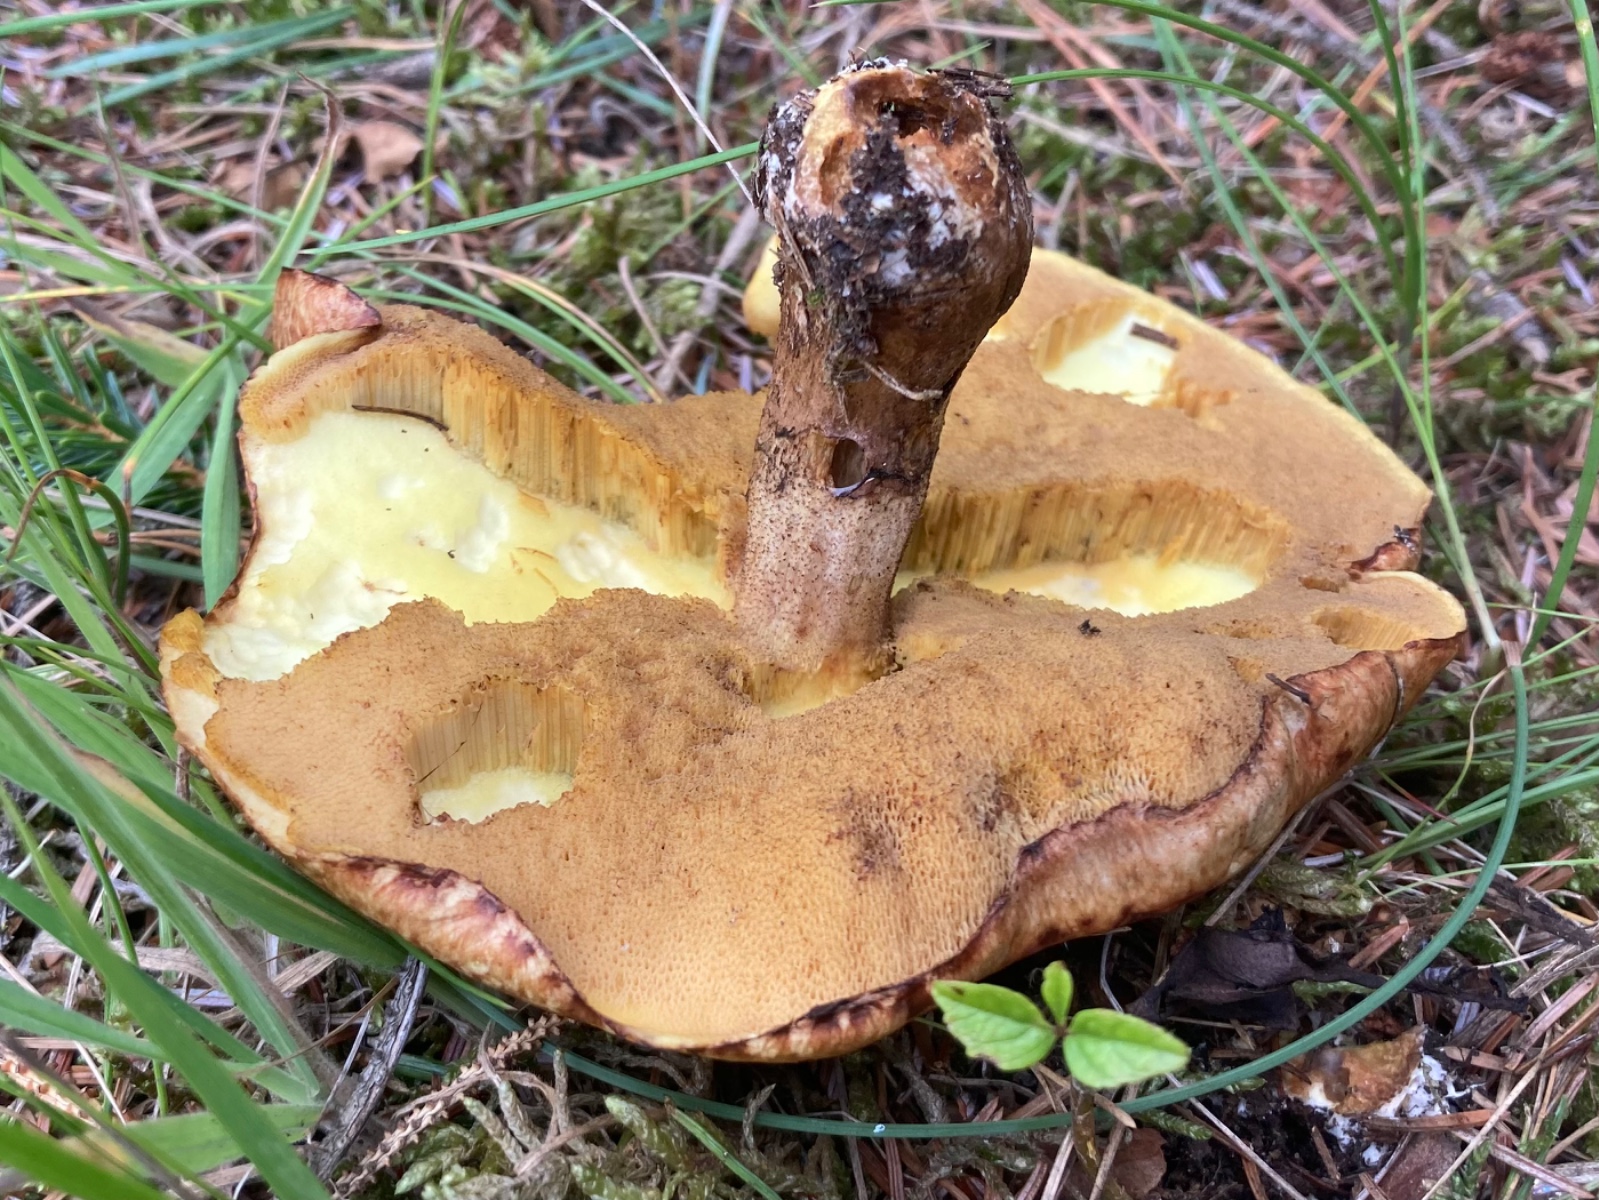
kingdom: Fungi
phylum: Basidiomycota
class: Agaricomycetes
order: Boletales
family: Suillaceae
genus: Suillus
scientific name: Suillus luteus
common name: brungul slimrørhat
